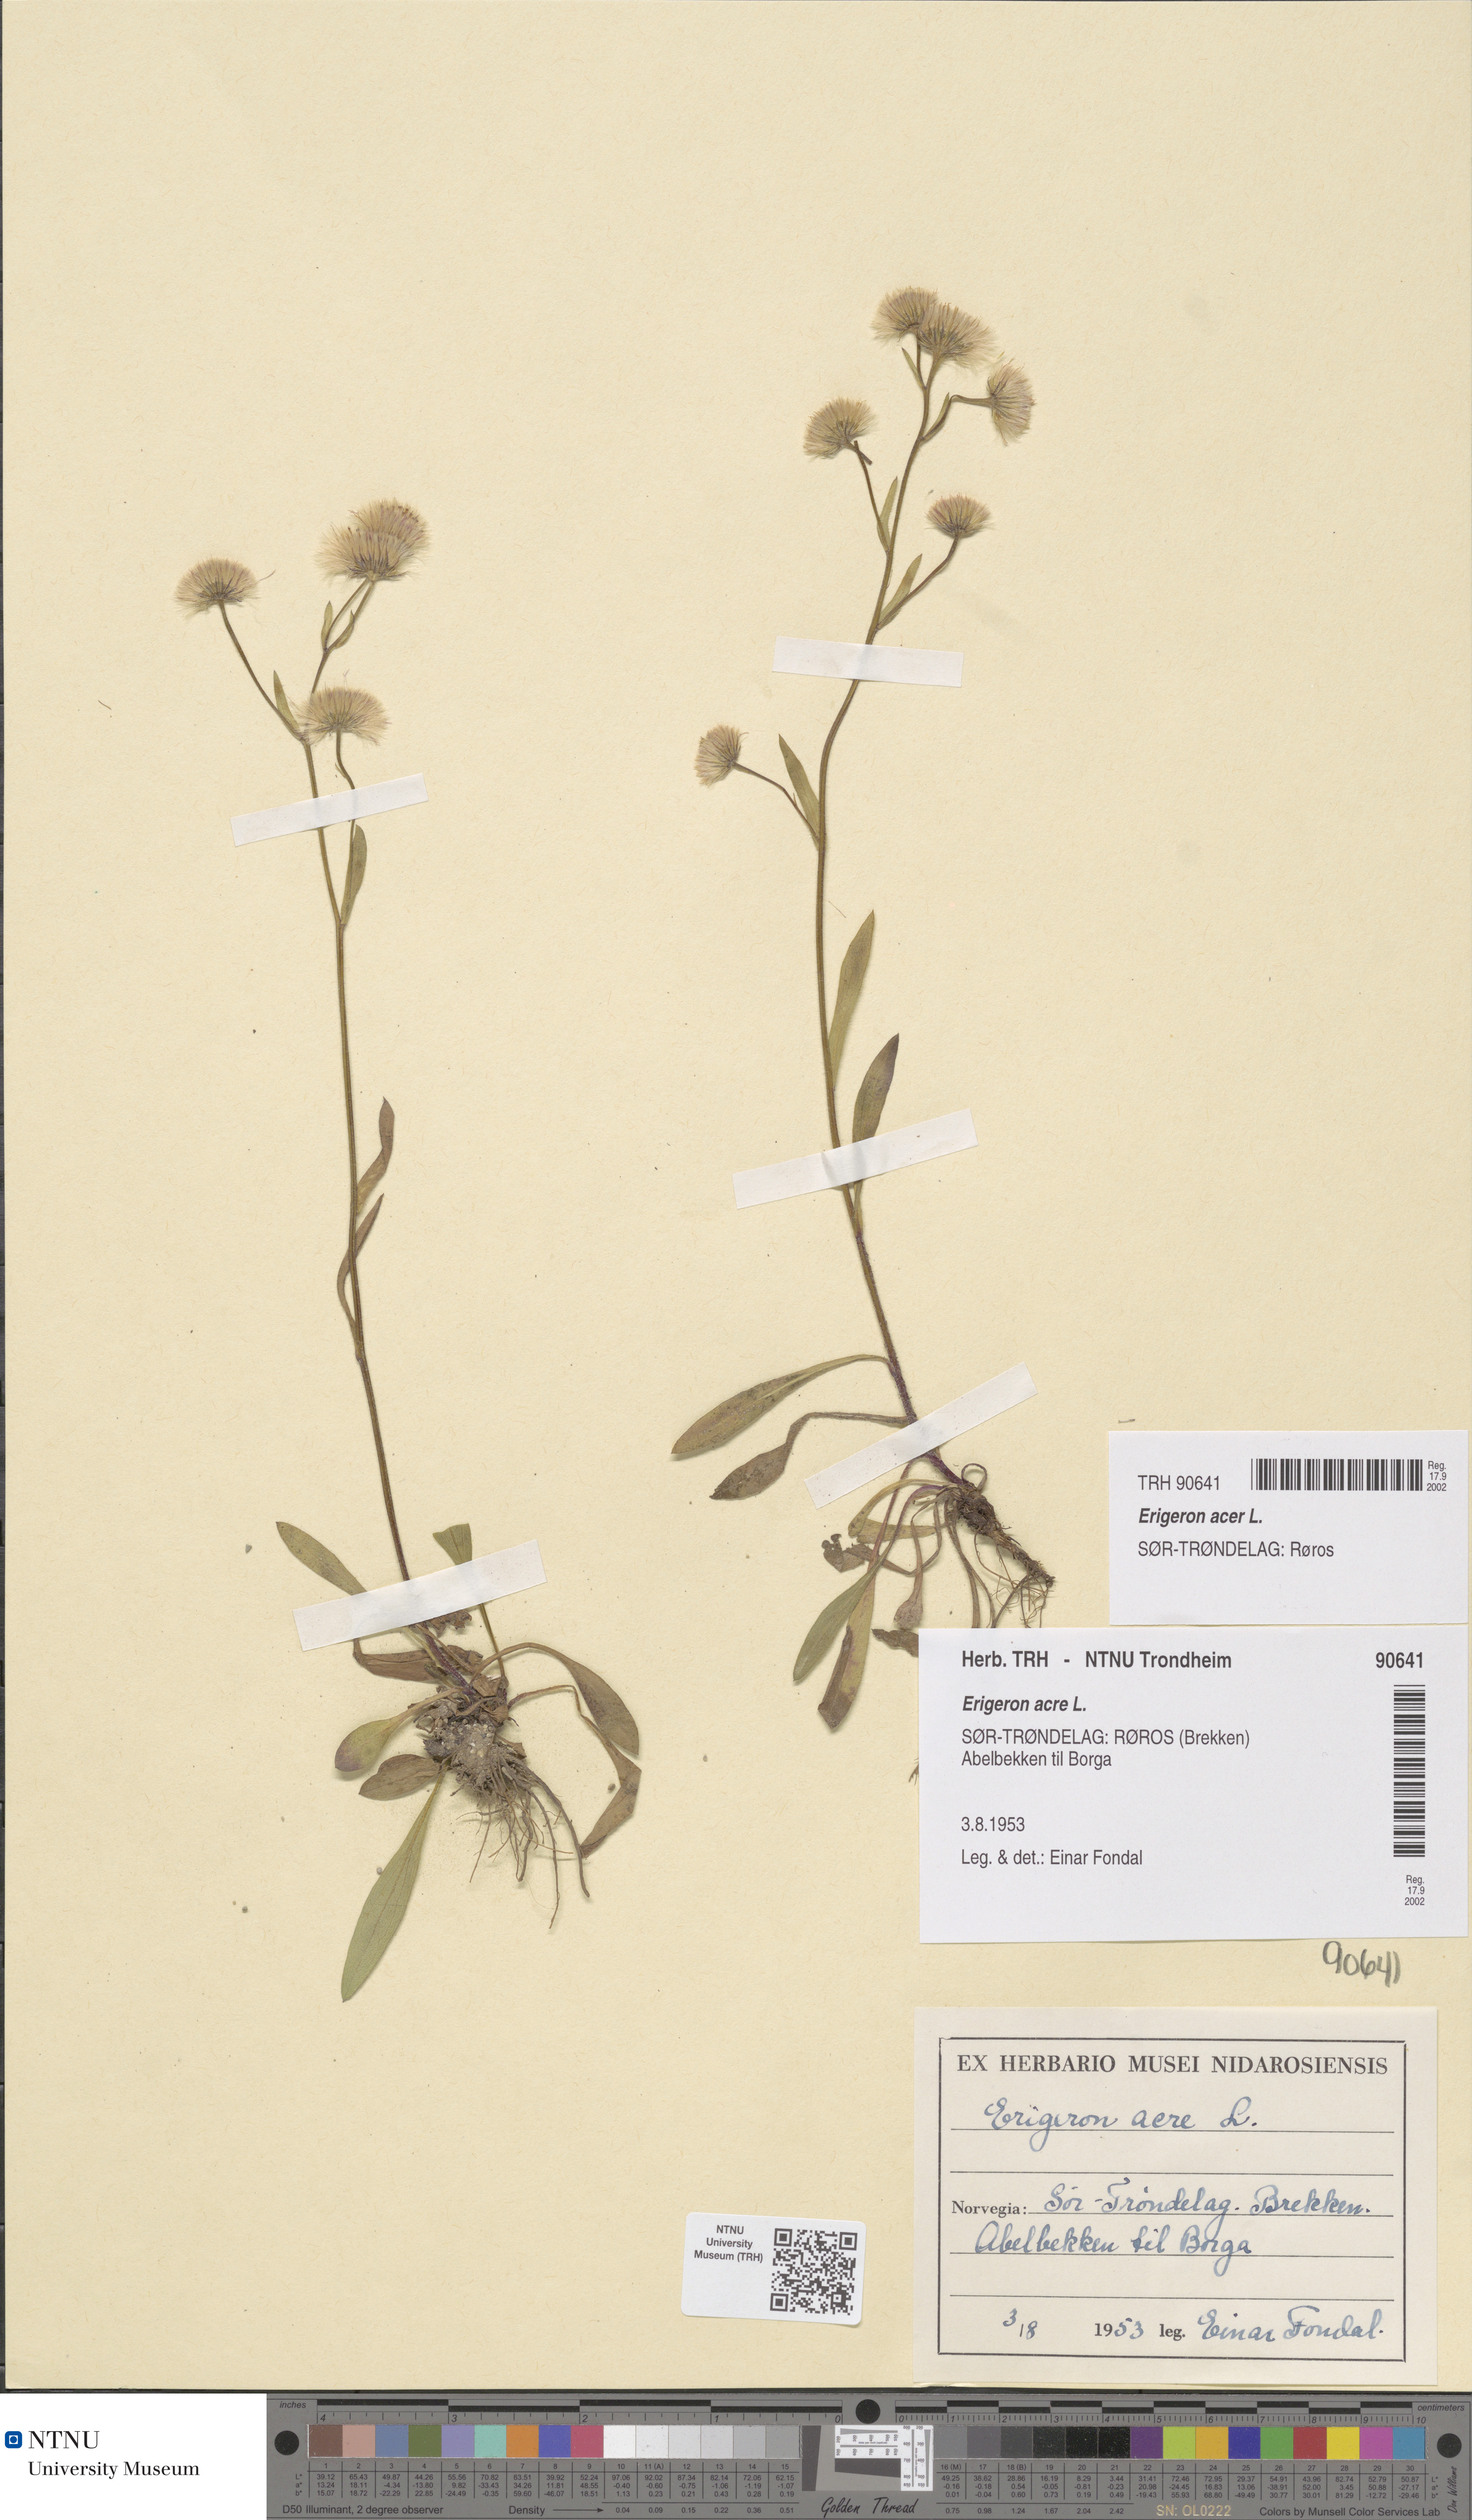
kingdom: Plantae
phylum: Tracheophyta
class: Magnoliopsida
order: Asterales
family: Asteraceae
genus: Erigeron
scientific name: Erigeron acris
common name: Blue fleabane
